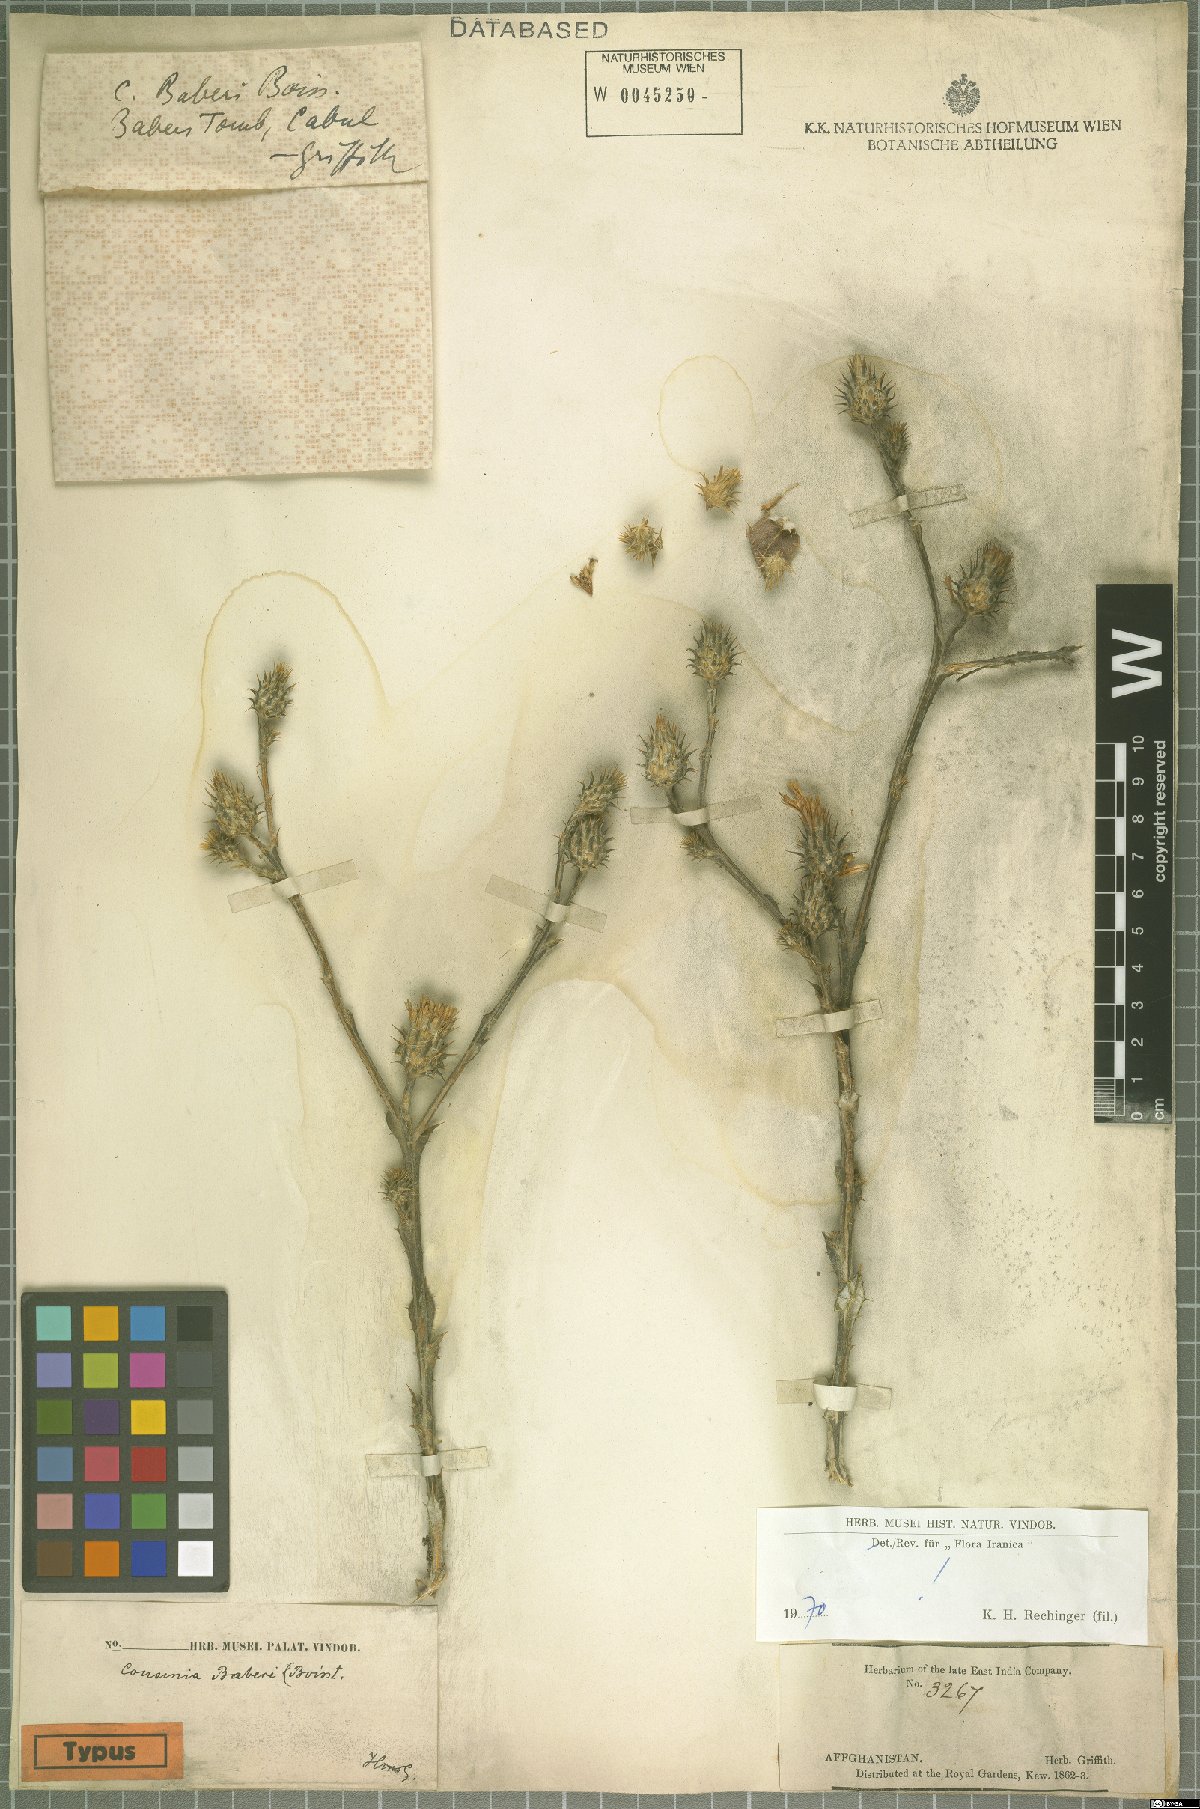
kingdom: Plantae
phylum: Tracheophyta
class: Magnoliopsida
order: Asterales
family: Asteraceae
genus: Cousinia
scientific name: Cousinia baberi
